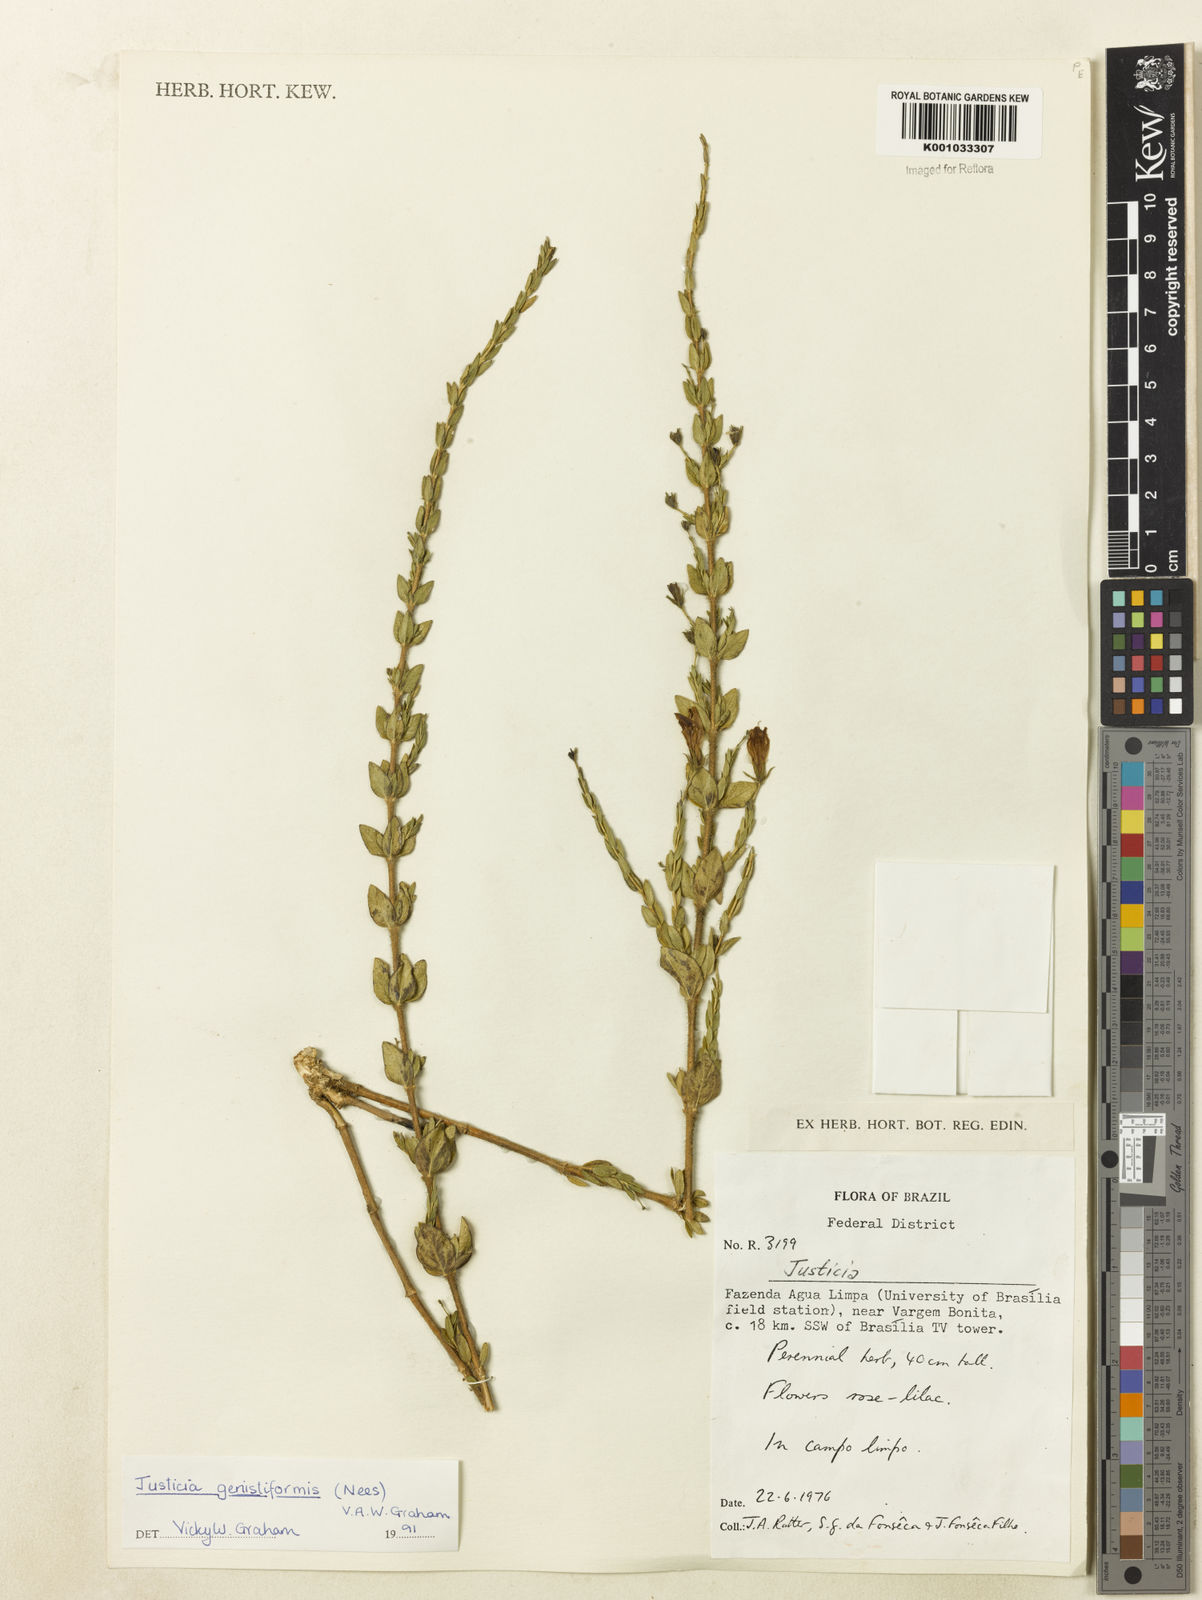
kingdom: Plantae
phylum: Tracheophyta
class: Magnoliopsida
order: Lamiales
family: Acanthaceae
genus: Justicia
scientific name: Justicia
